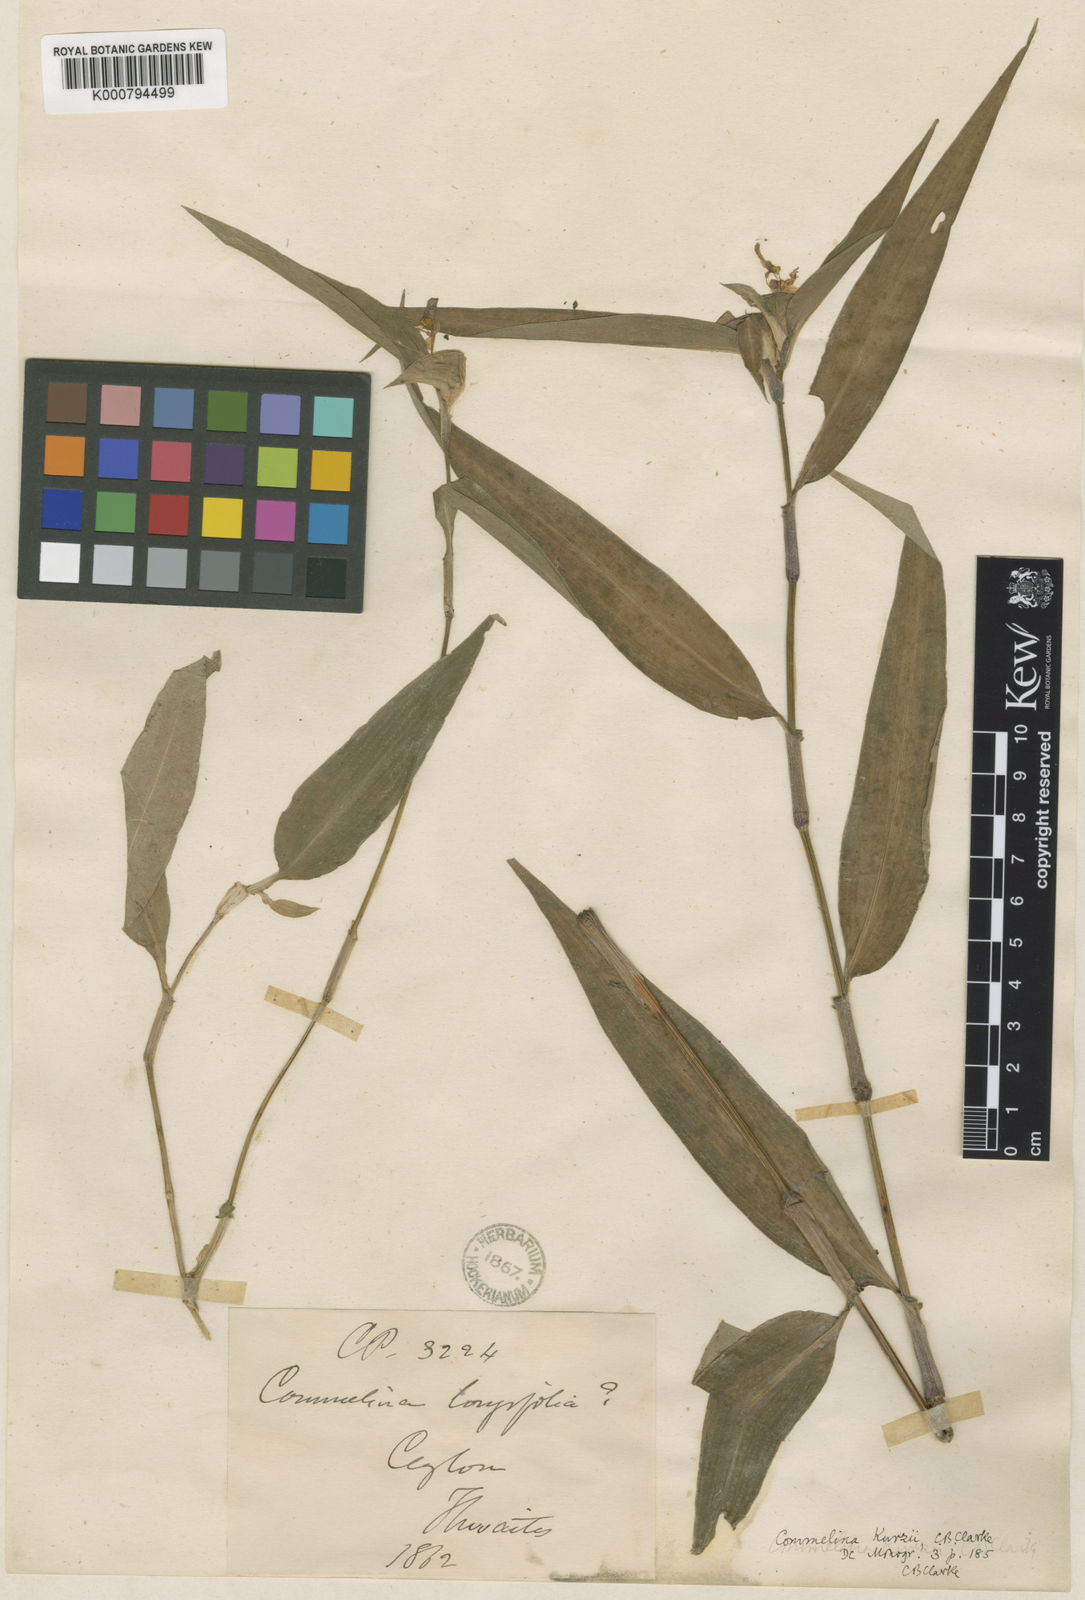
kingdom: Plantae
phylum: Tracheophyta
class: Liliopsida
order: Commelinales
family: Commelinaceae
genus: Commelina
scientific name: Commelina undulata
